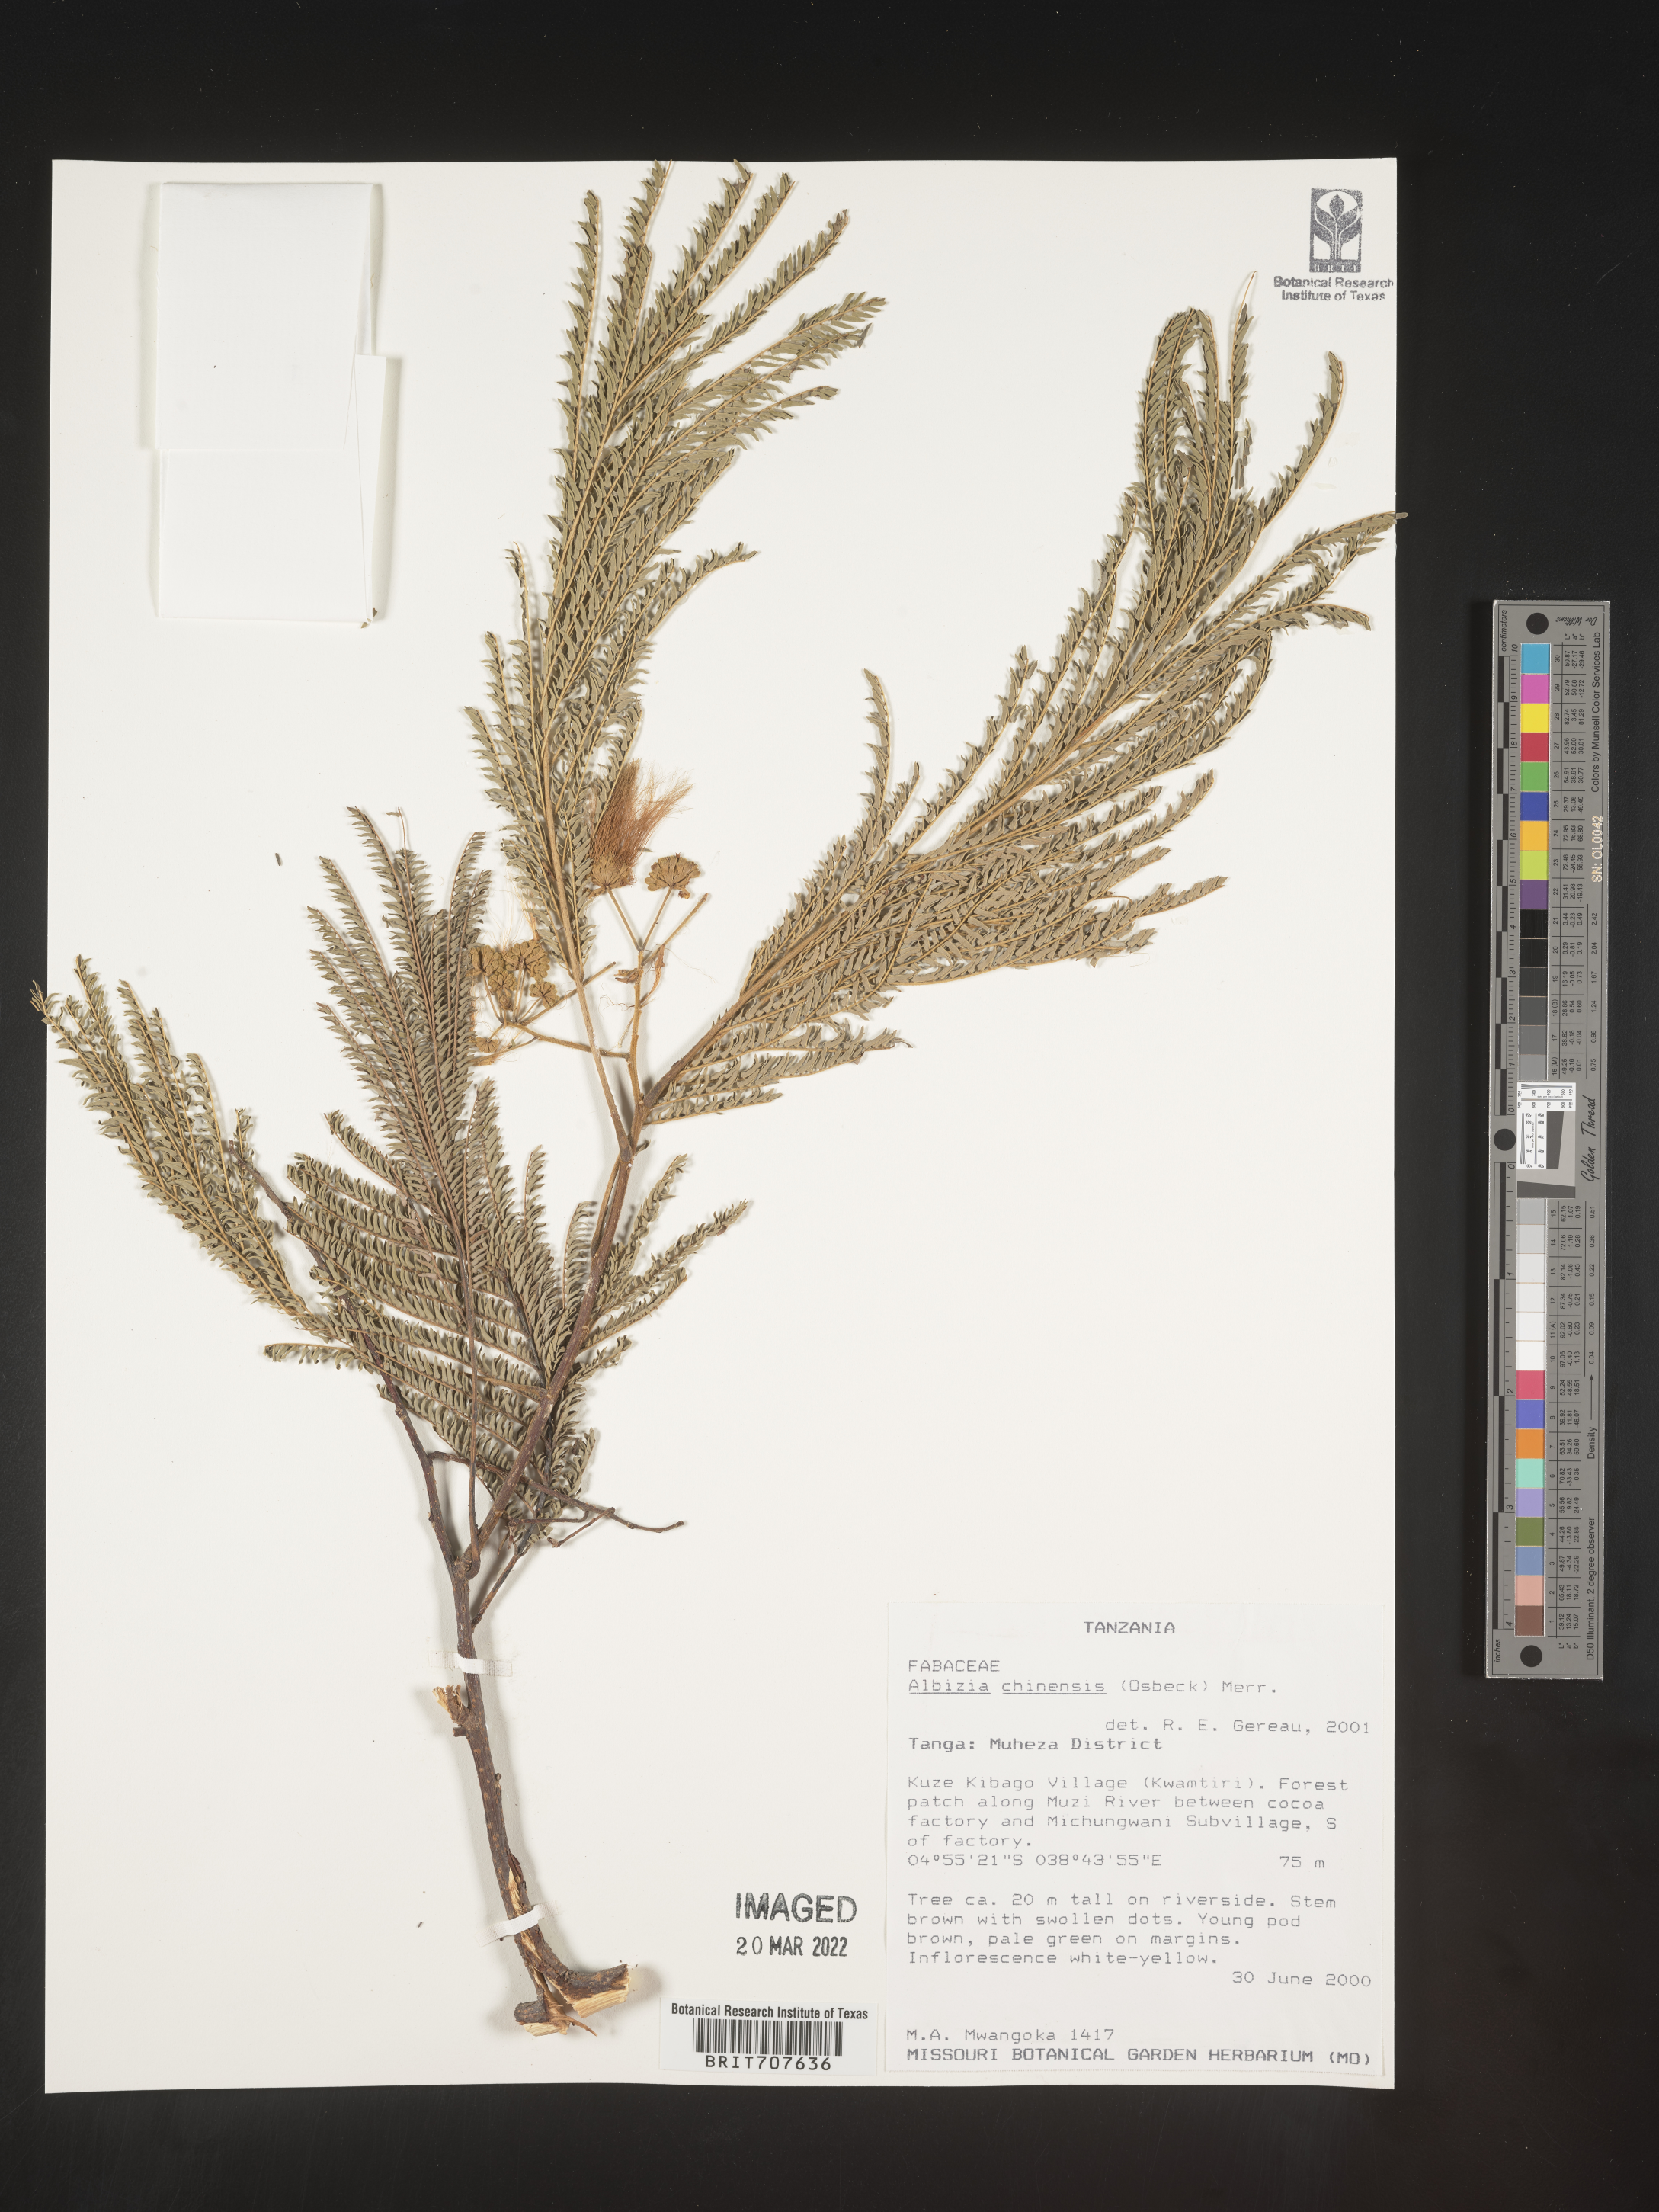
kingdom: Plantae
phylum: Tracheophyta
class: Magnoliopsida
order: Fabales
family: Fabaceae
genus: Albizia
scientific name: Albizia
